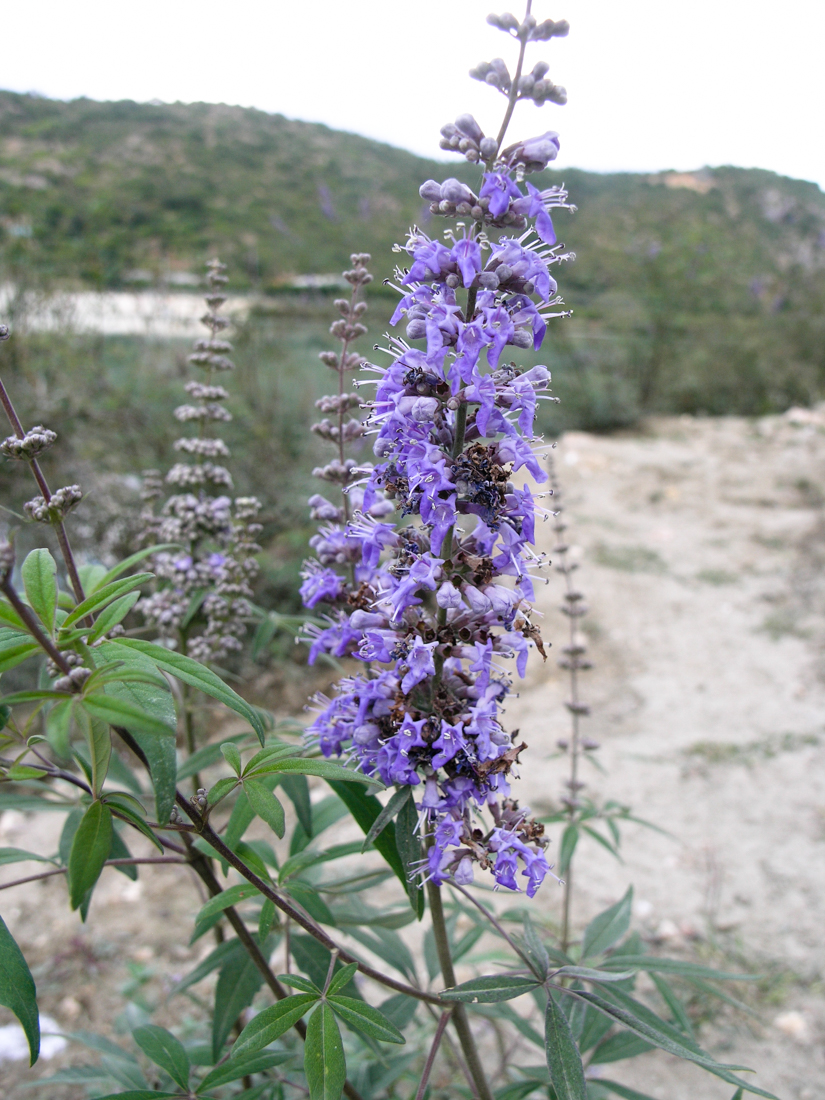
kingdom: Plantae
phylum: Tracheophyta
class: Magnoliopsida
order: Lamiales
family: Lamiaceae
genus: Vitex
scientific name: Vitex agnus-castus
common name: Chasteberry
